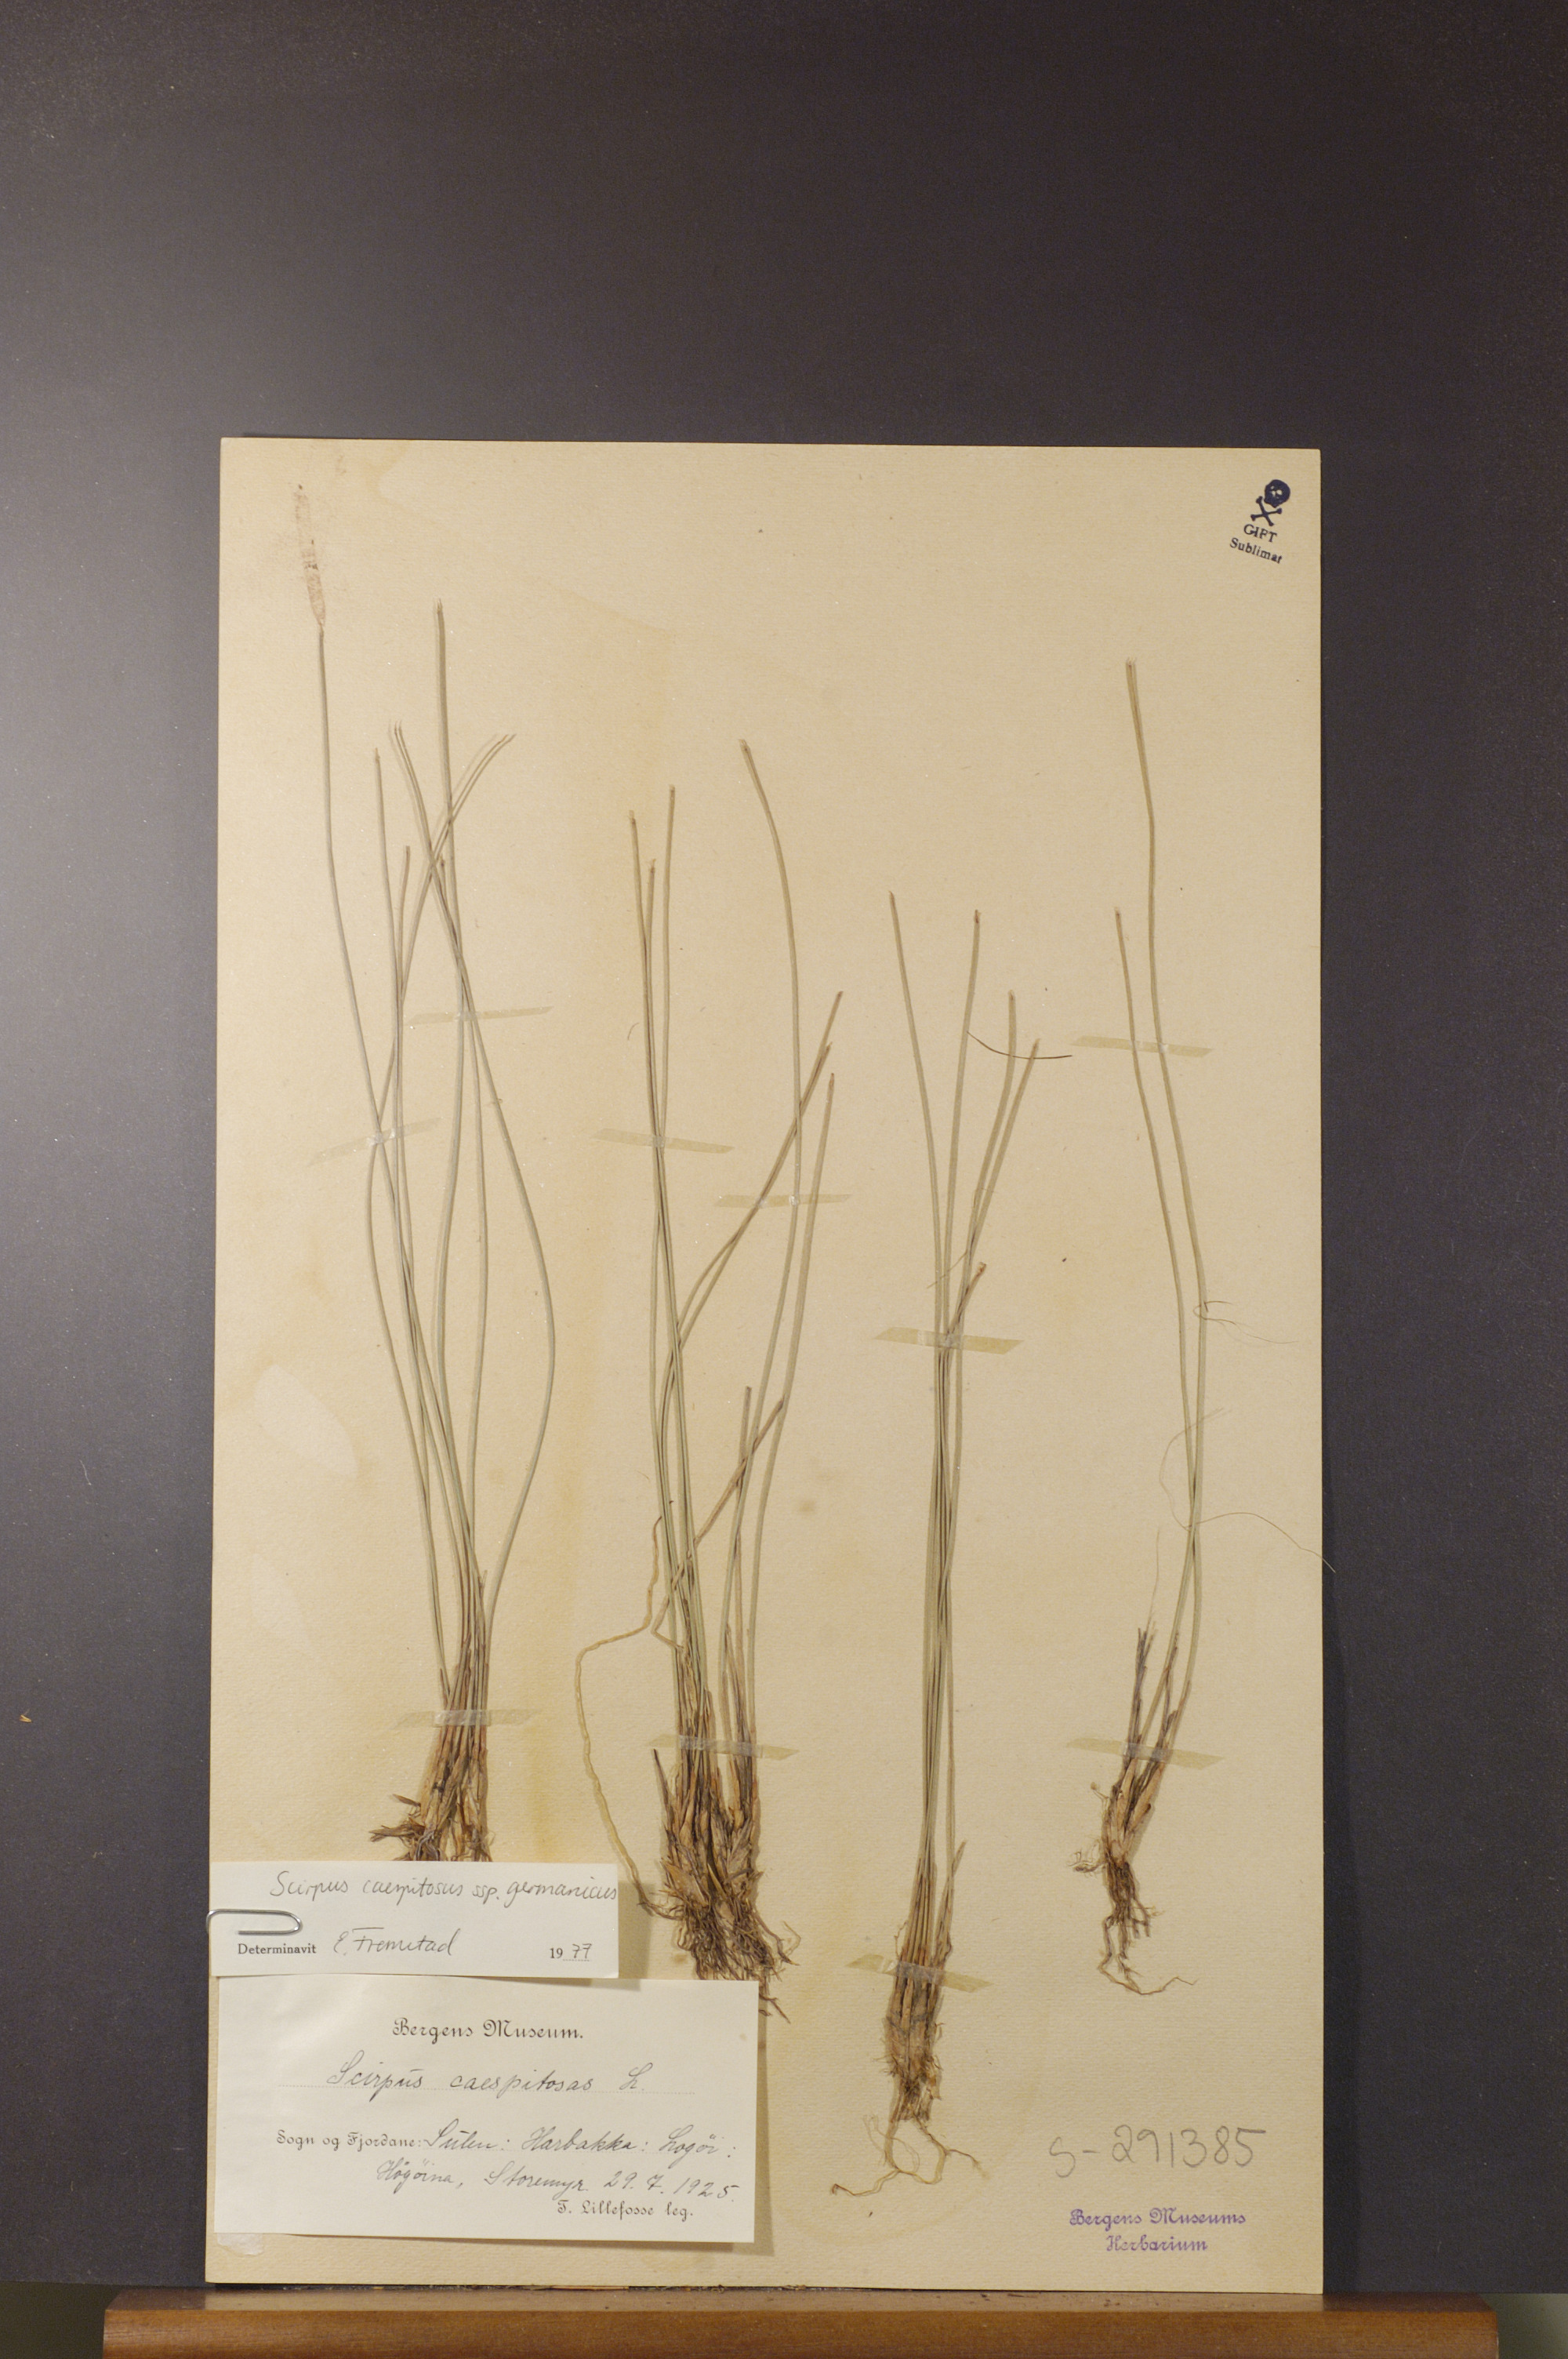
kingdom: Plantae
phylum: Tracheophyta
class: Liliopsida
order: Poales
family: Cyperaceae
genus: Trichophorum
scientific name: Trichophorum cespitosum
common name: Cespitose bulrush
